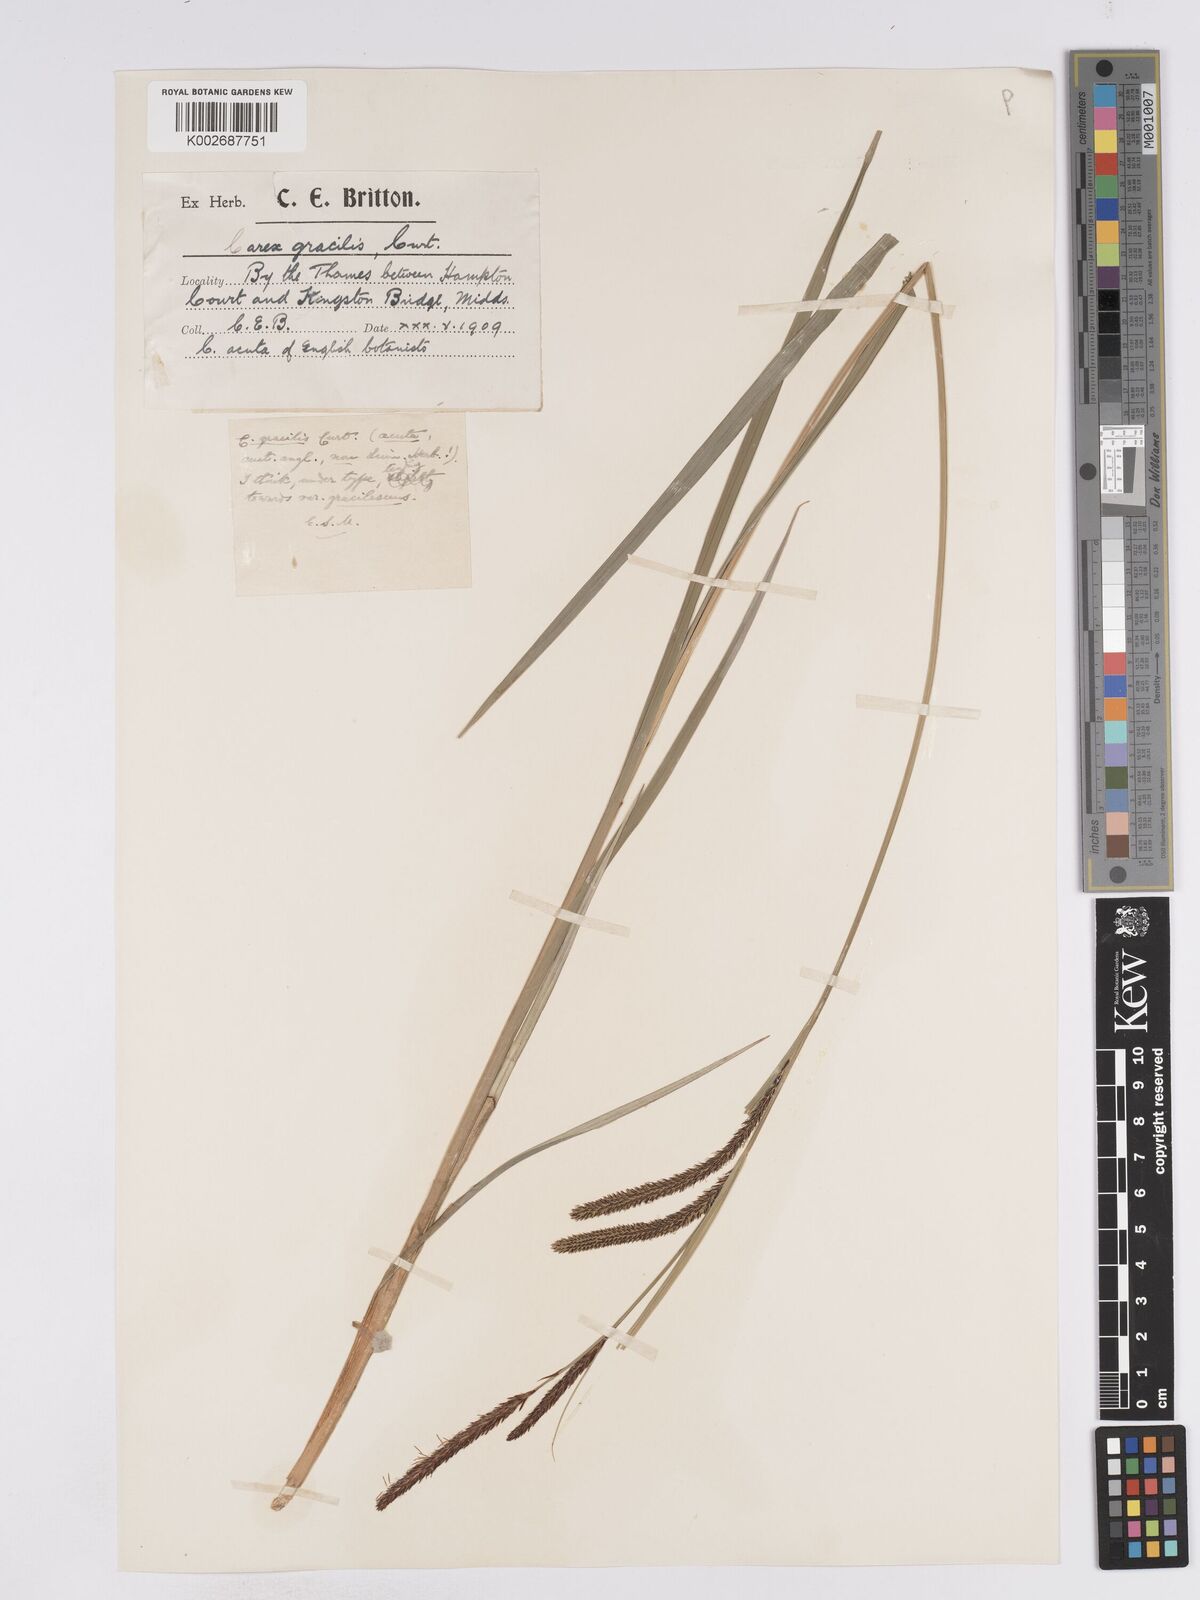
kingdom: Plantae
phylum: Tracheophyta
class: Liliopsida
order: Poales
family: Cyperaceae
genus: Carex
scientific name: Carex acuta
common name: Slender tufted-sedge
